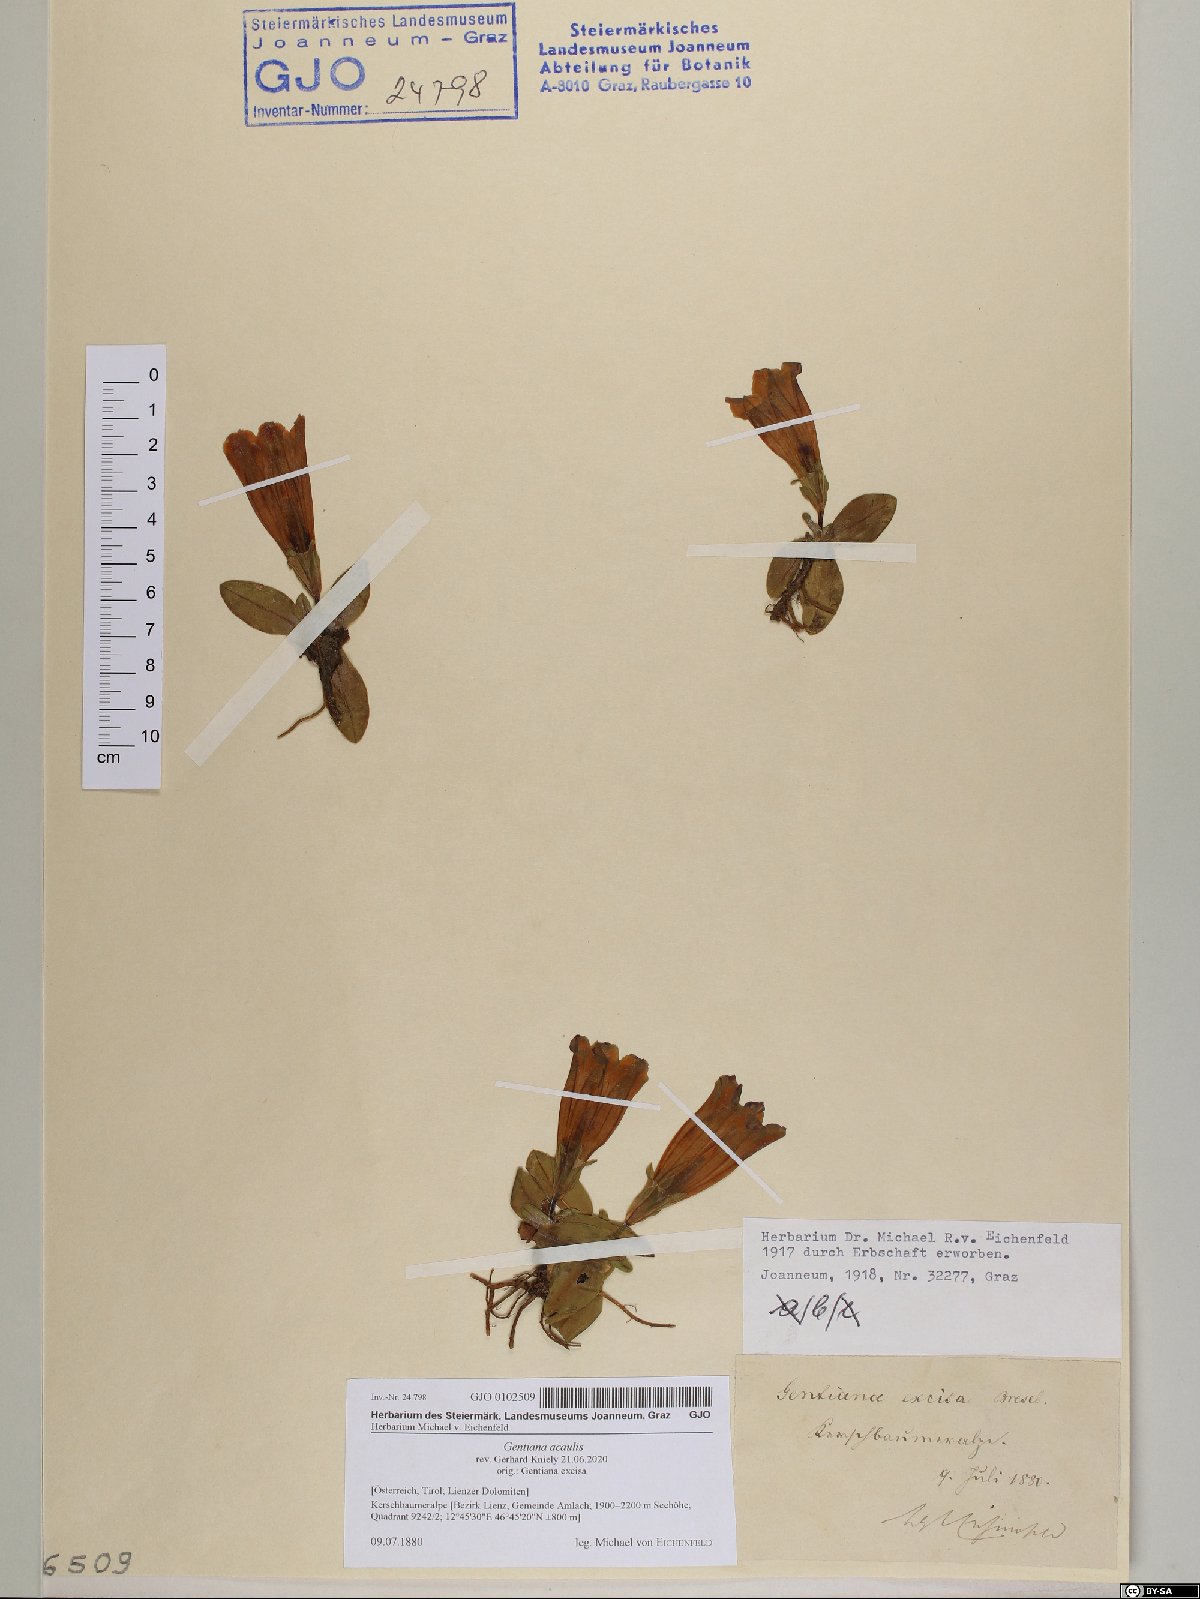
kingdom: Plantae
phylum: Tracheophyta
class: Magnoliopsida
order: Gentianales
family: Gentianaceae
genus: Gentiana
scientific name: Gentiana acaulis
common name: Trumpet gentian
